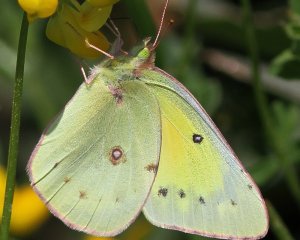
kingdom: Animalia
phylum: Arthropoda
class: Insecta
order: Lepidoptera
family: Pieridae
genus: Colias
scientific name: Colias eurytheme
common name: Orange Sulphur
